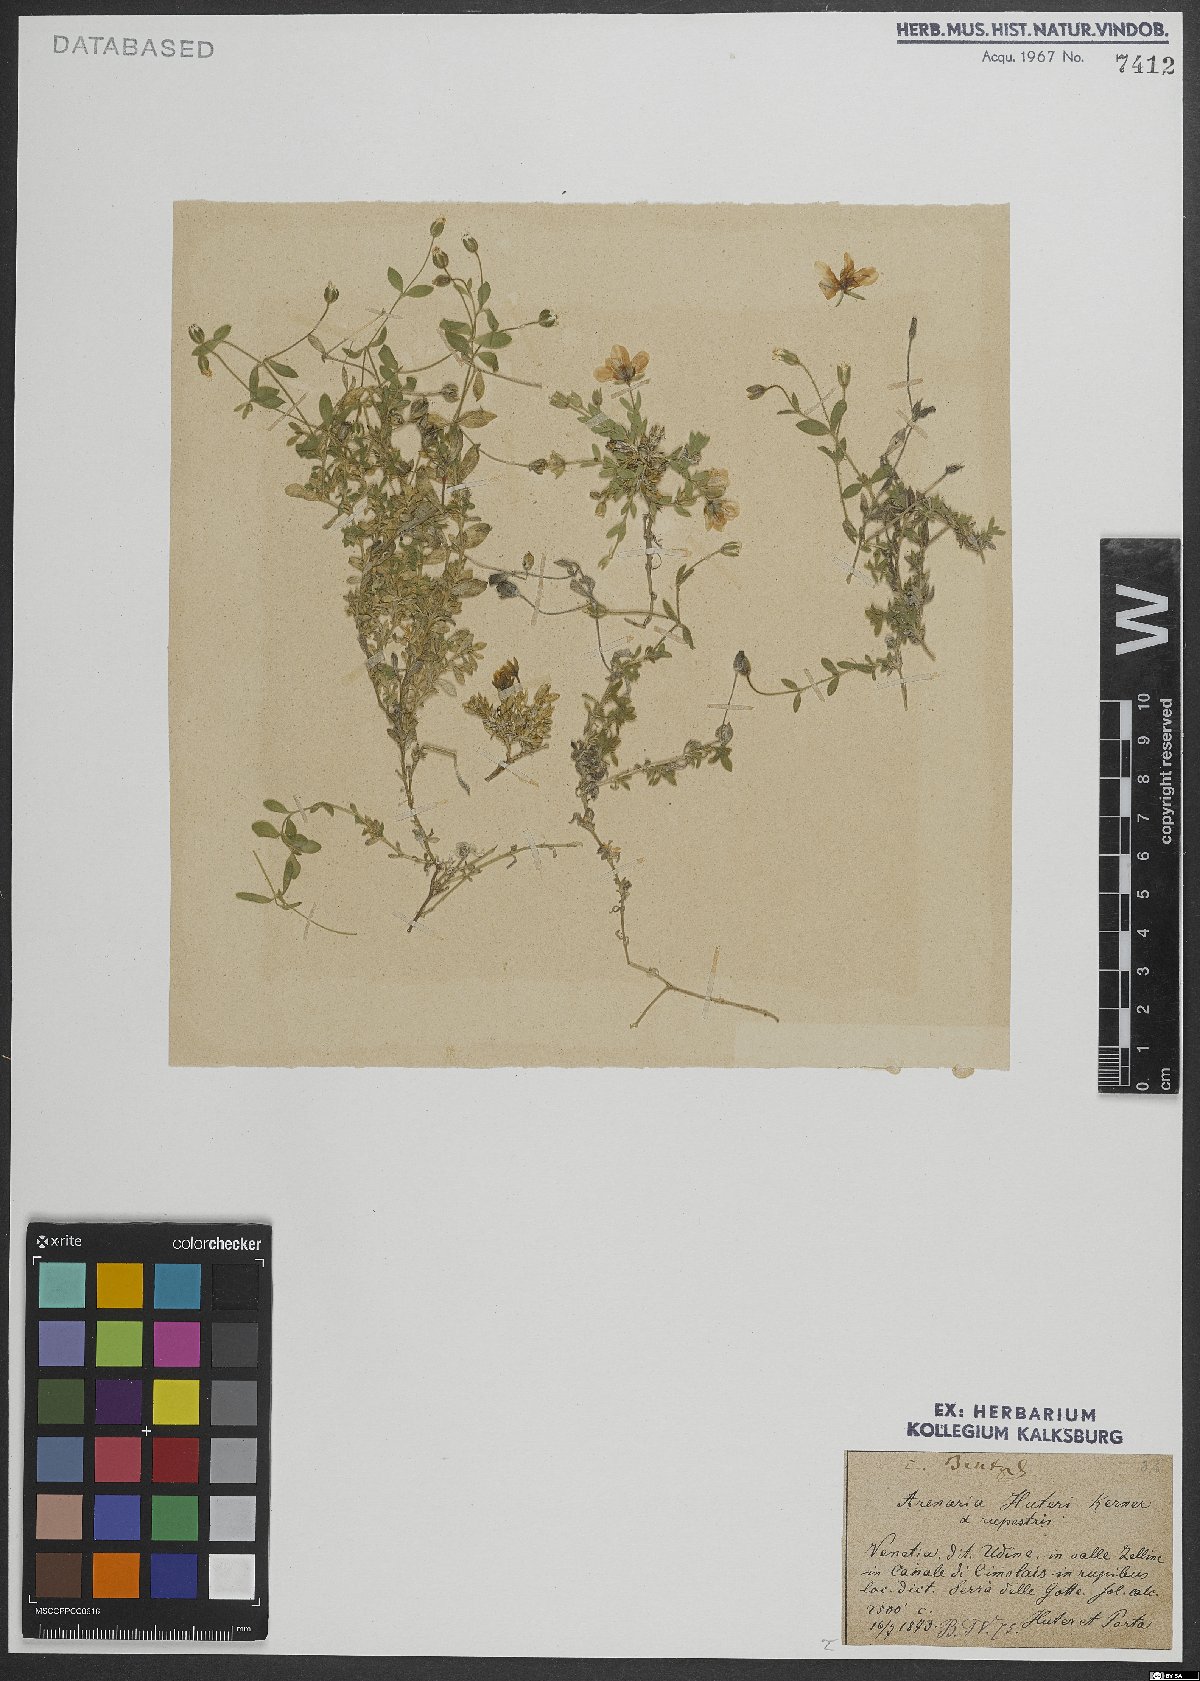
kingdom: Plantae
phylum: Tracheophyta
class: Magnoliopsida
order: Caryophyllales
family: Caryophyllaceae
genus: Arenaria
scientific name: Arenaria huteri
